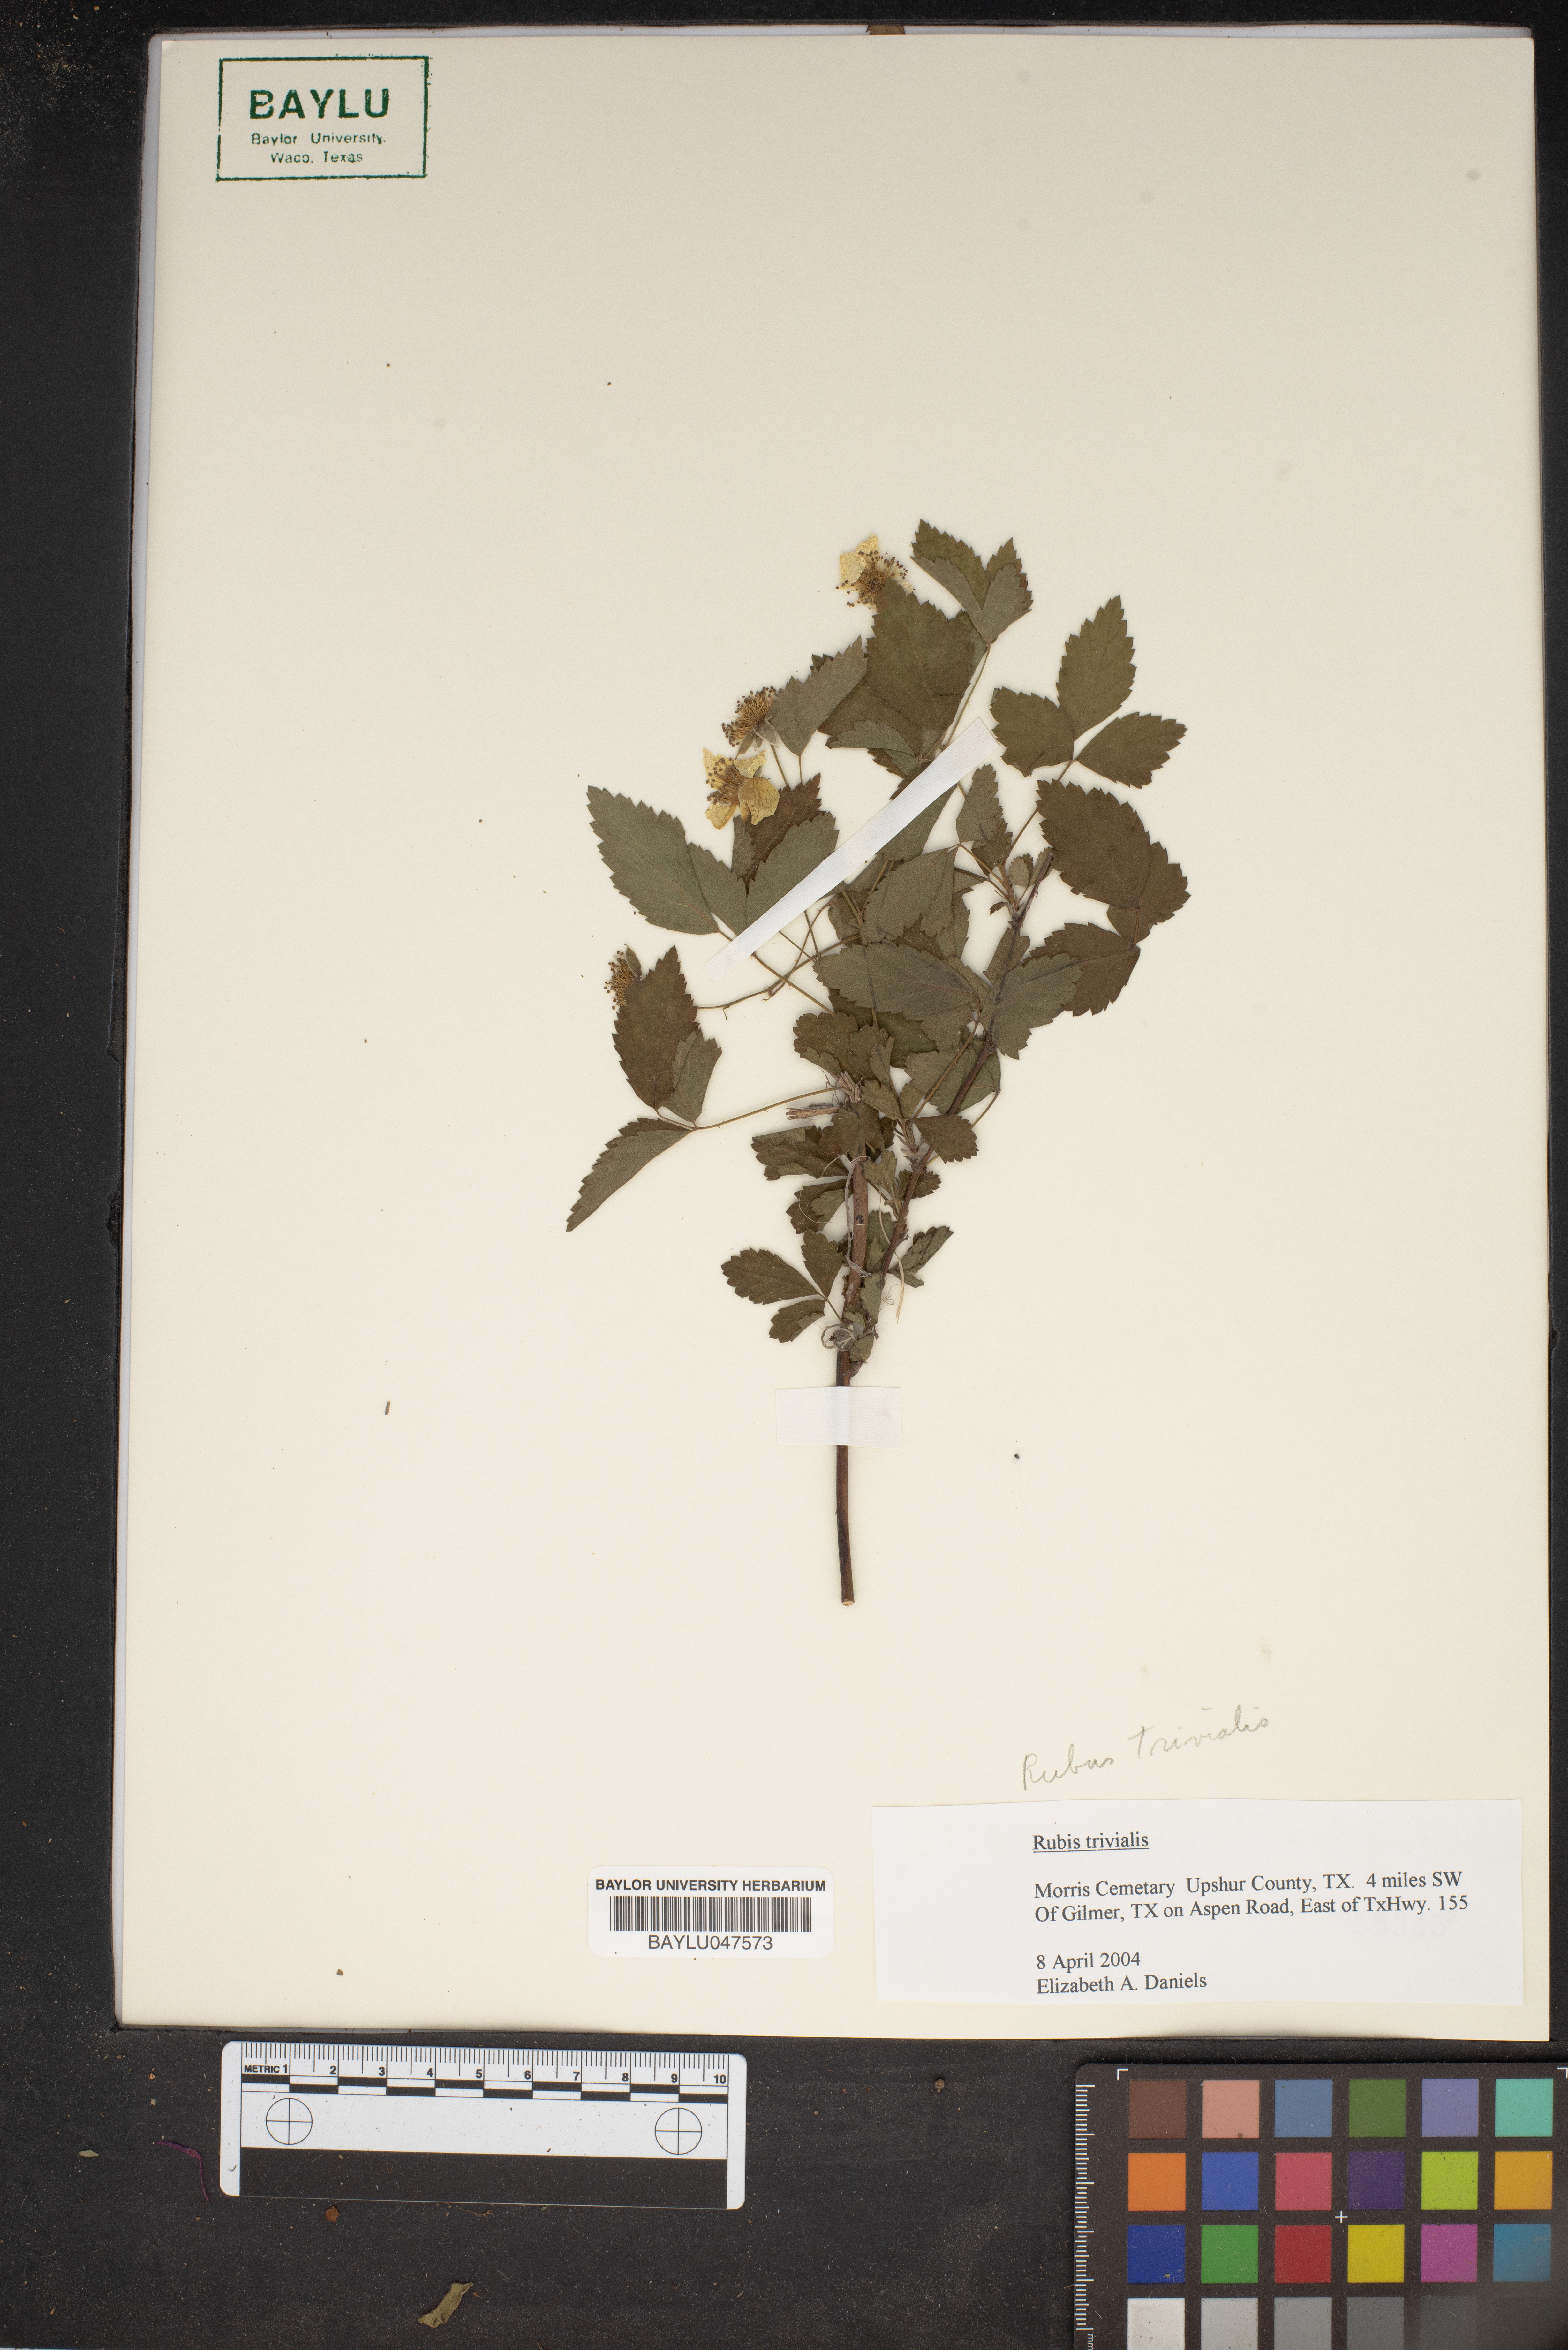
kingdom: Plantae
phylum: Tracheophyta
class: Magnoliopsida
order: Rosales
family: Rosaceae
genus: Rubus
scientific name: Rubus trivialis
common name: Southern dewberry
